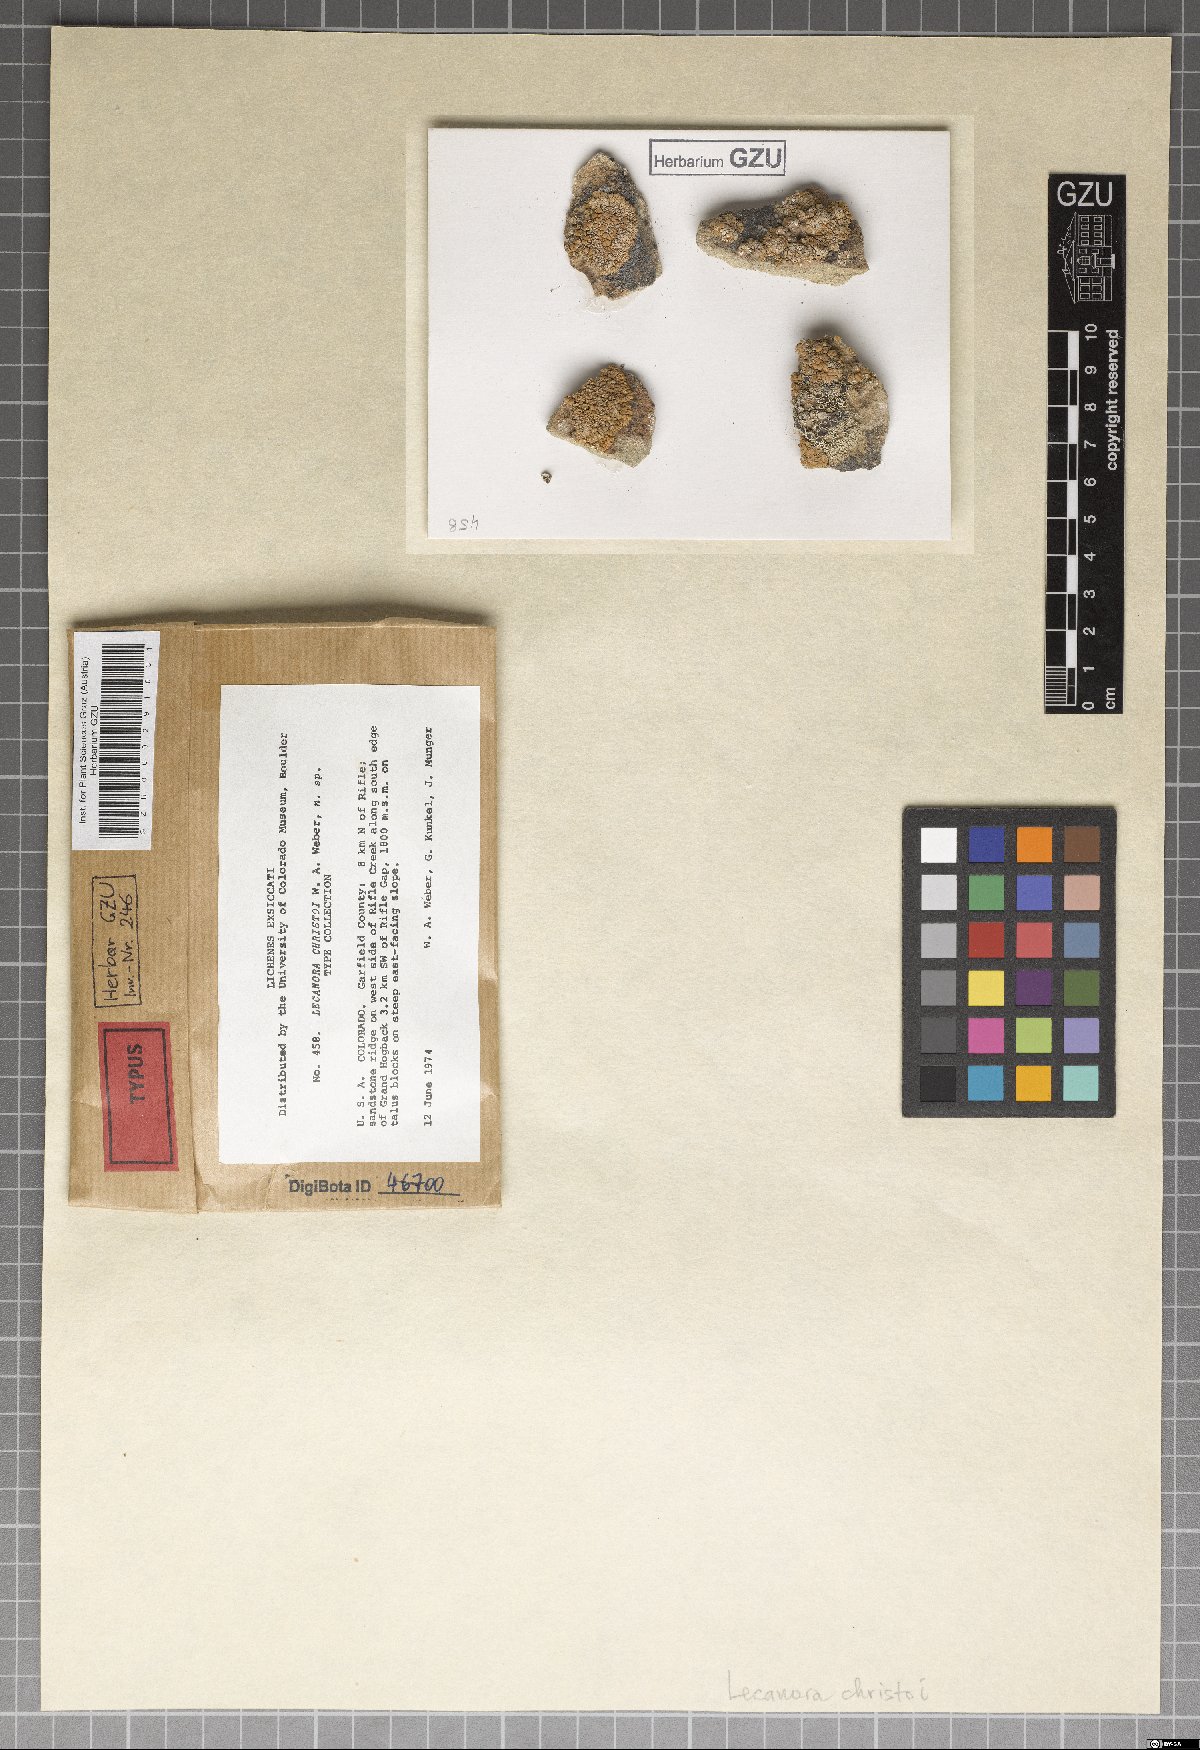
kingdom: Fungi
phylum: Ascomycota
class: Lecanoromycetes
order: Lecanorales
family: Lecanoraceae
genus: Omphalodina
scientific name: Omphalodina phaedrophthalma
